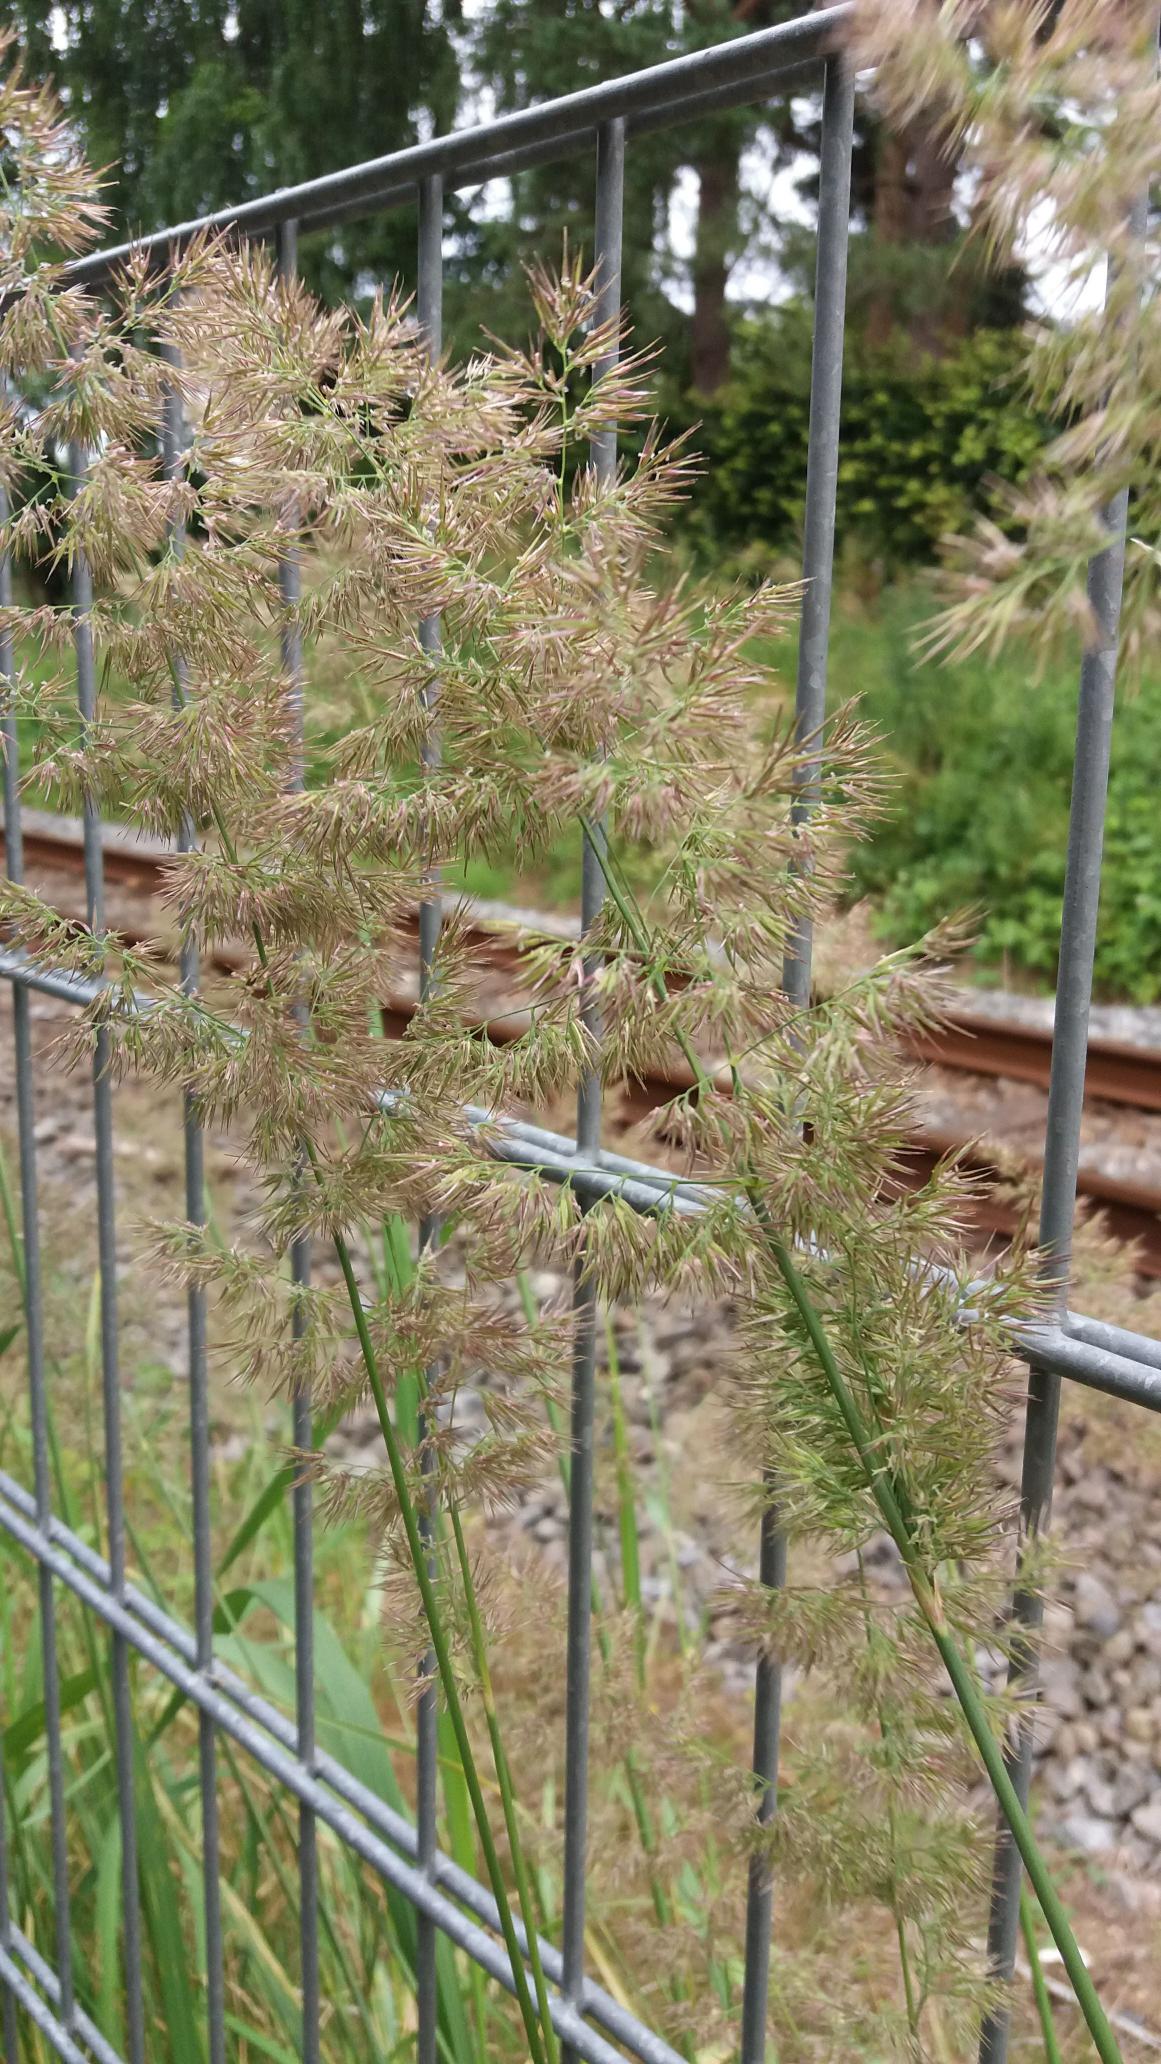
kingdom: Plantae
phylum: Tracheophyta
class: Liliopsida
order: Poales
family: Poaceae
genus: Calamagrostis
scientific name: Calamagrostis epigejos
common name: Bjerg-rørhvene
